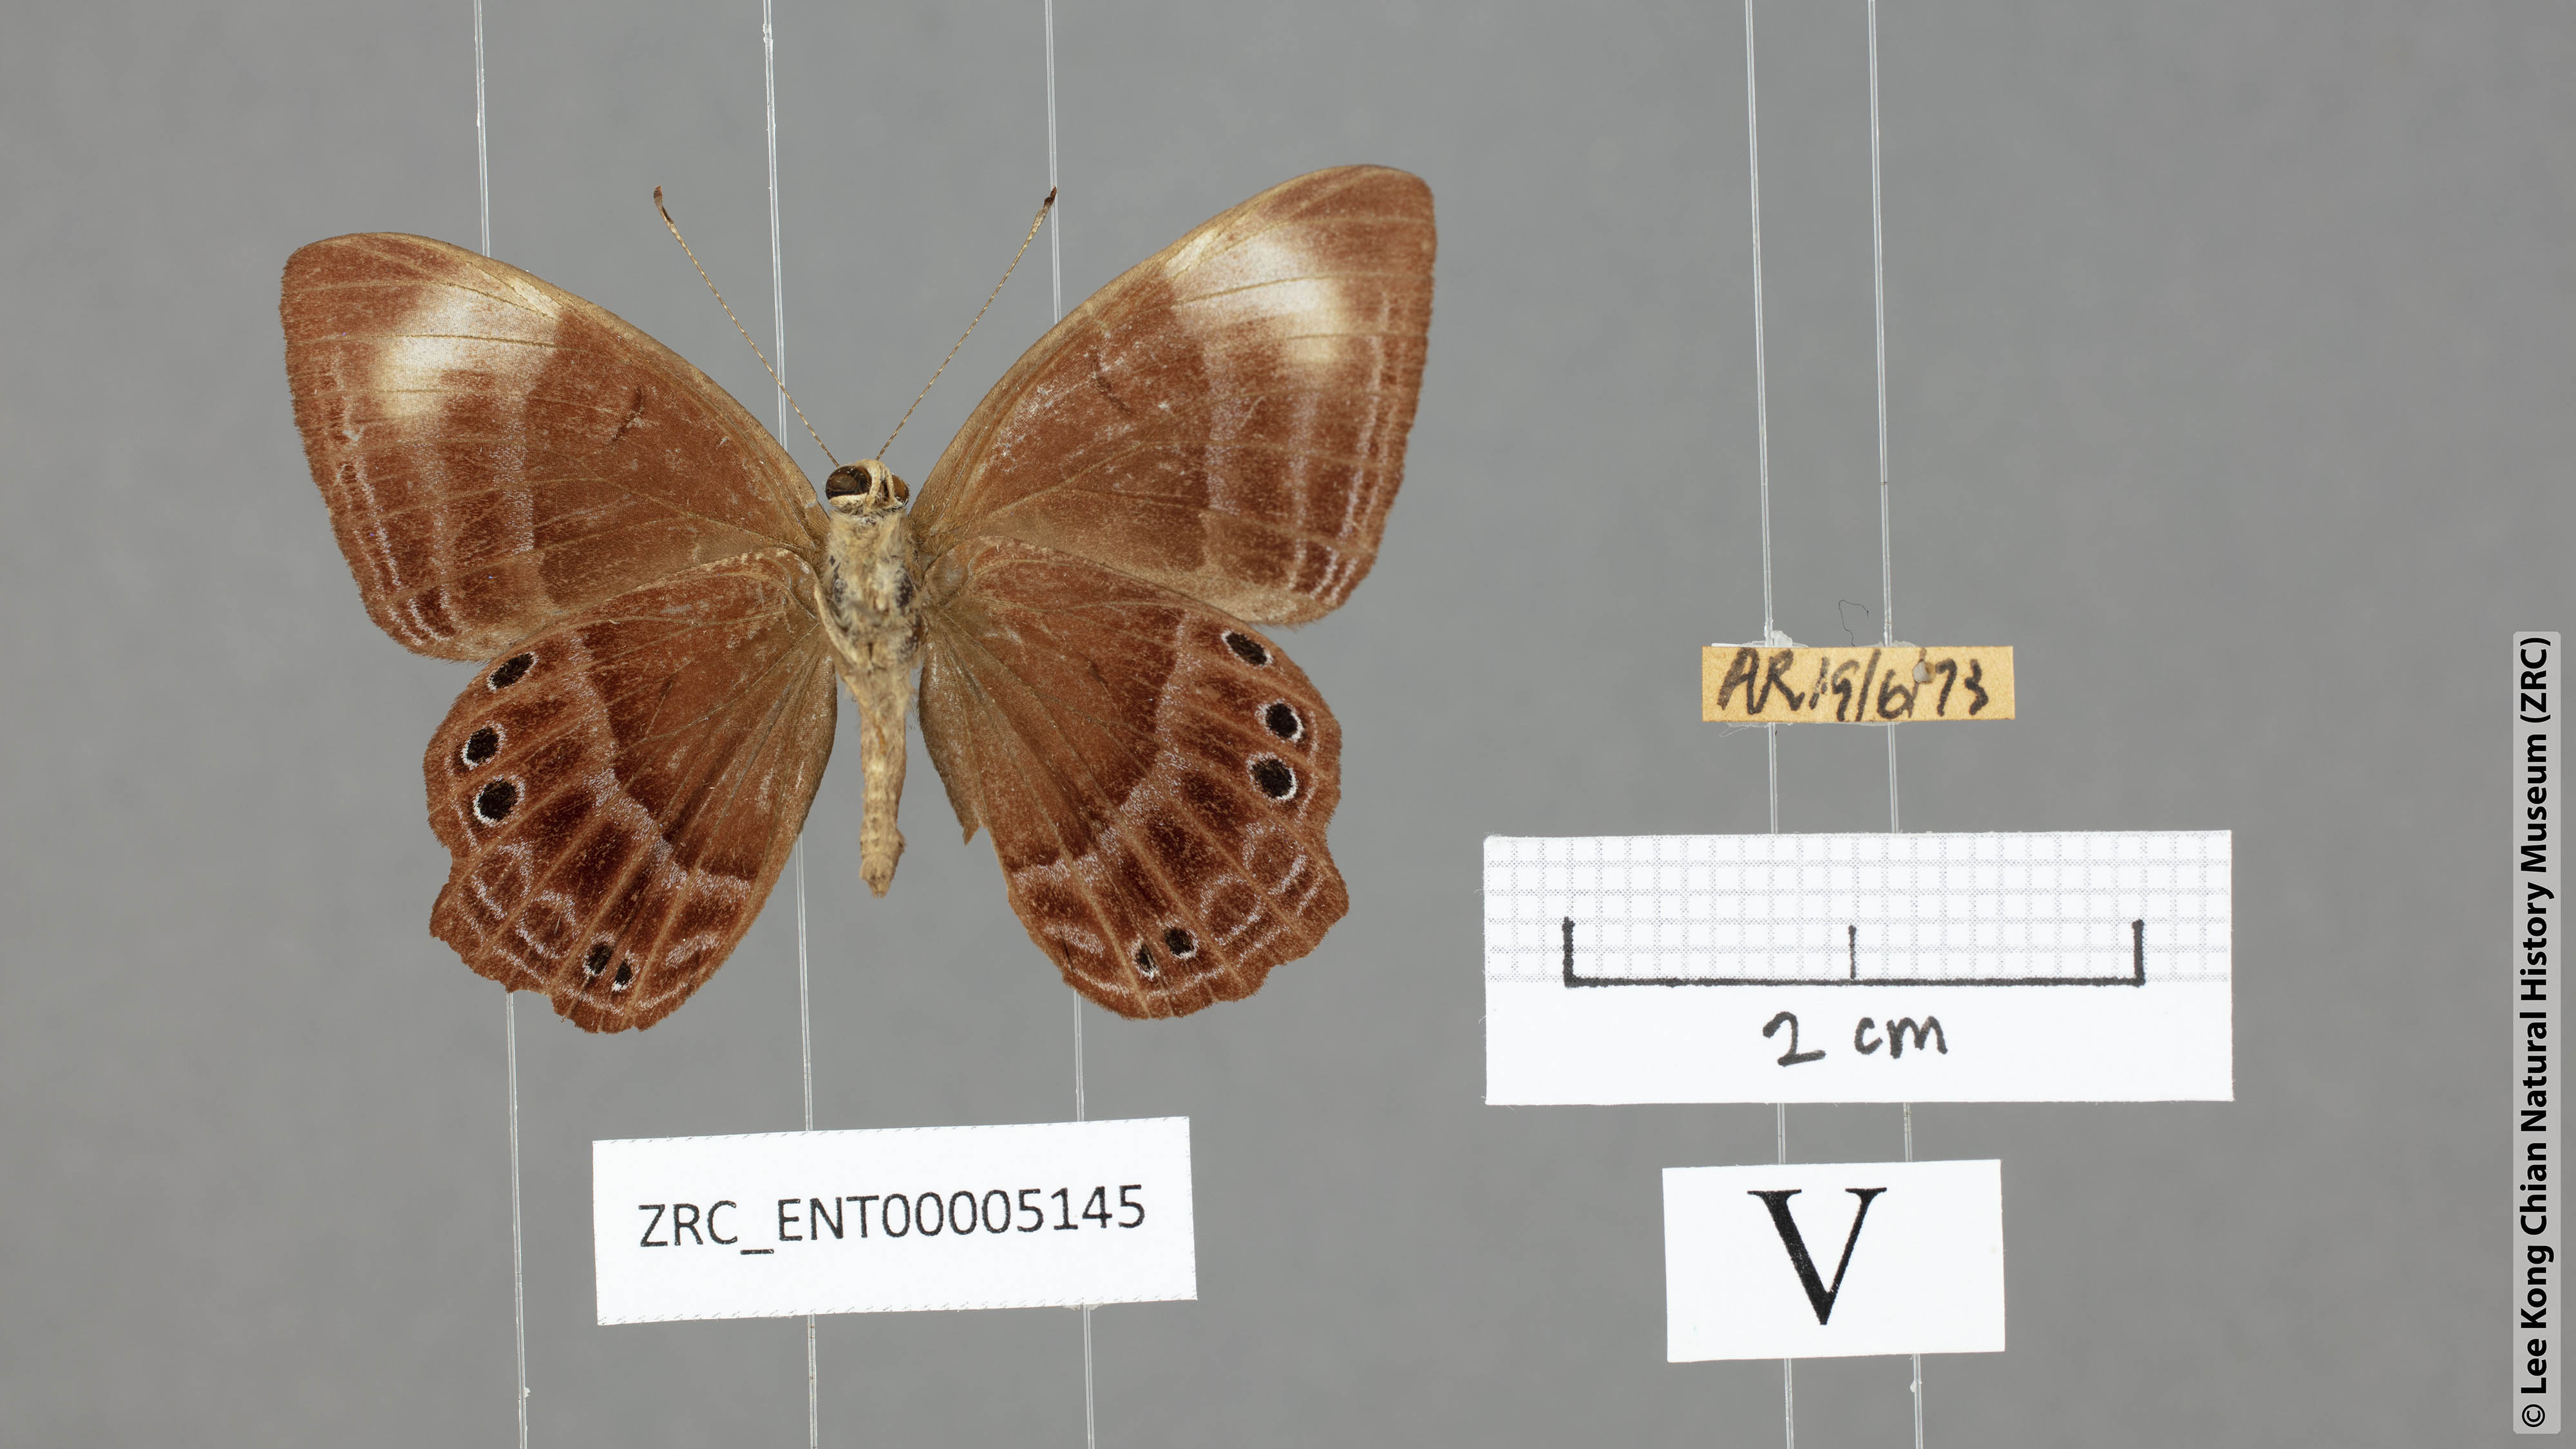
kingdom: Animalia
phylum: Arthropoda
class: Insecta
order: Lepidoptera
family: Lycaenidae
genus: Abisara
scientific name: Abisara geza
